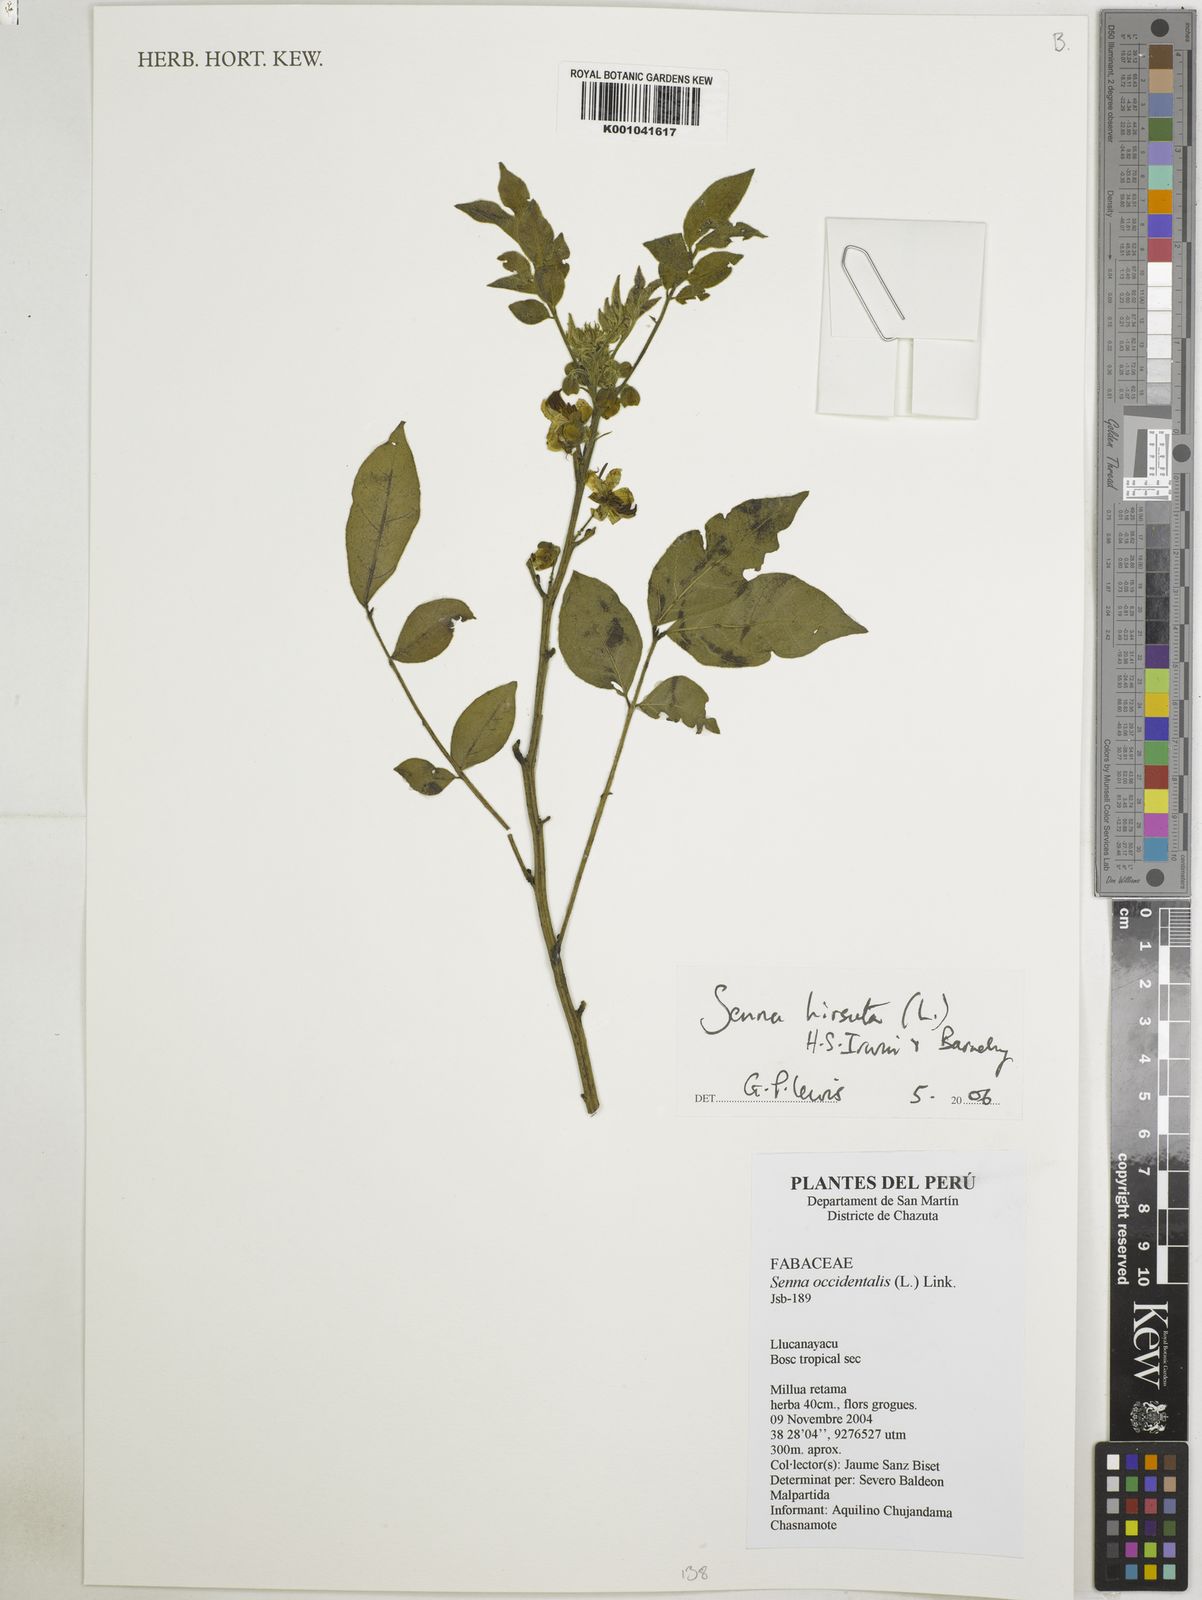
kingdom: Plantae
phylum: Tracheophyta
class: Magnoliopsida
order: Fabales
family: Fabaceae
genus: Senna
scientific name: Senna hirsuta
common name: Woolly senna
